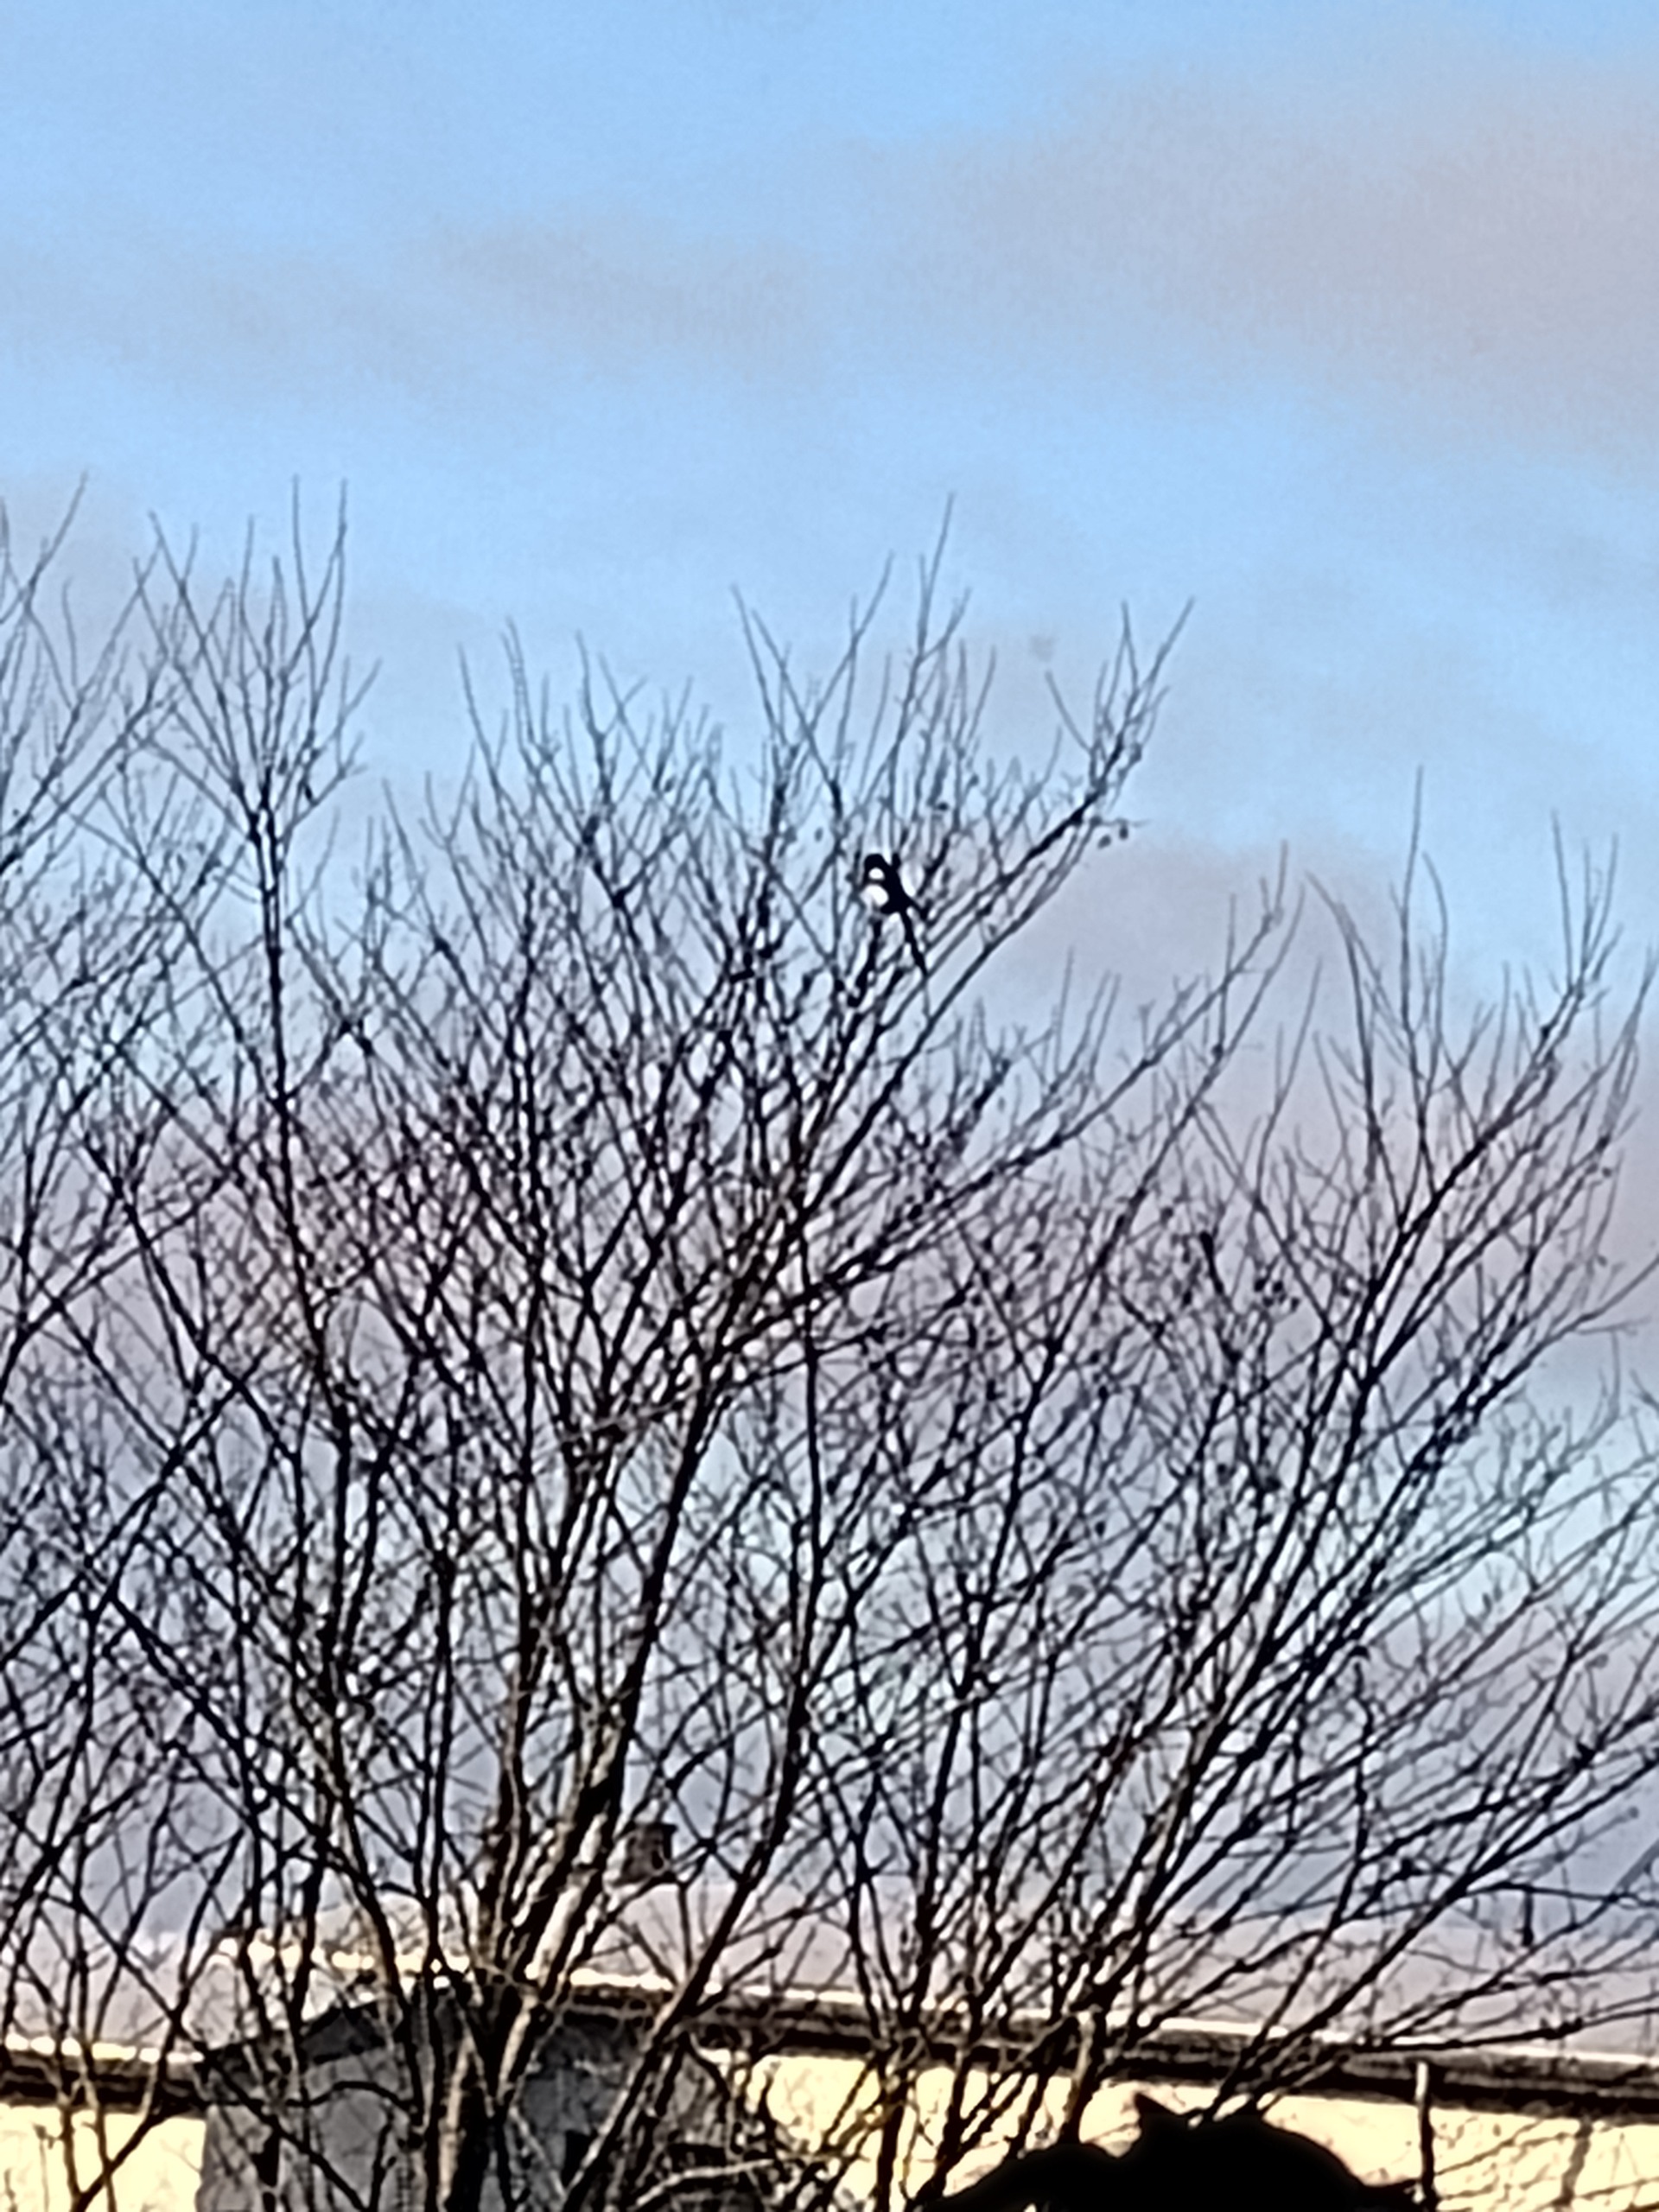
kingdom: Animalia
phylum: Chordata
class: Aves
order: Passeriformes
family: Corvidae
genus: Pica
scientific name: Pica pica
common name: Husskade
